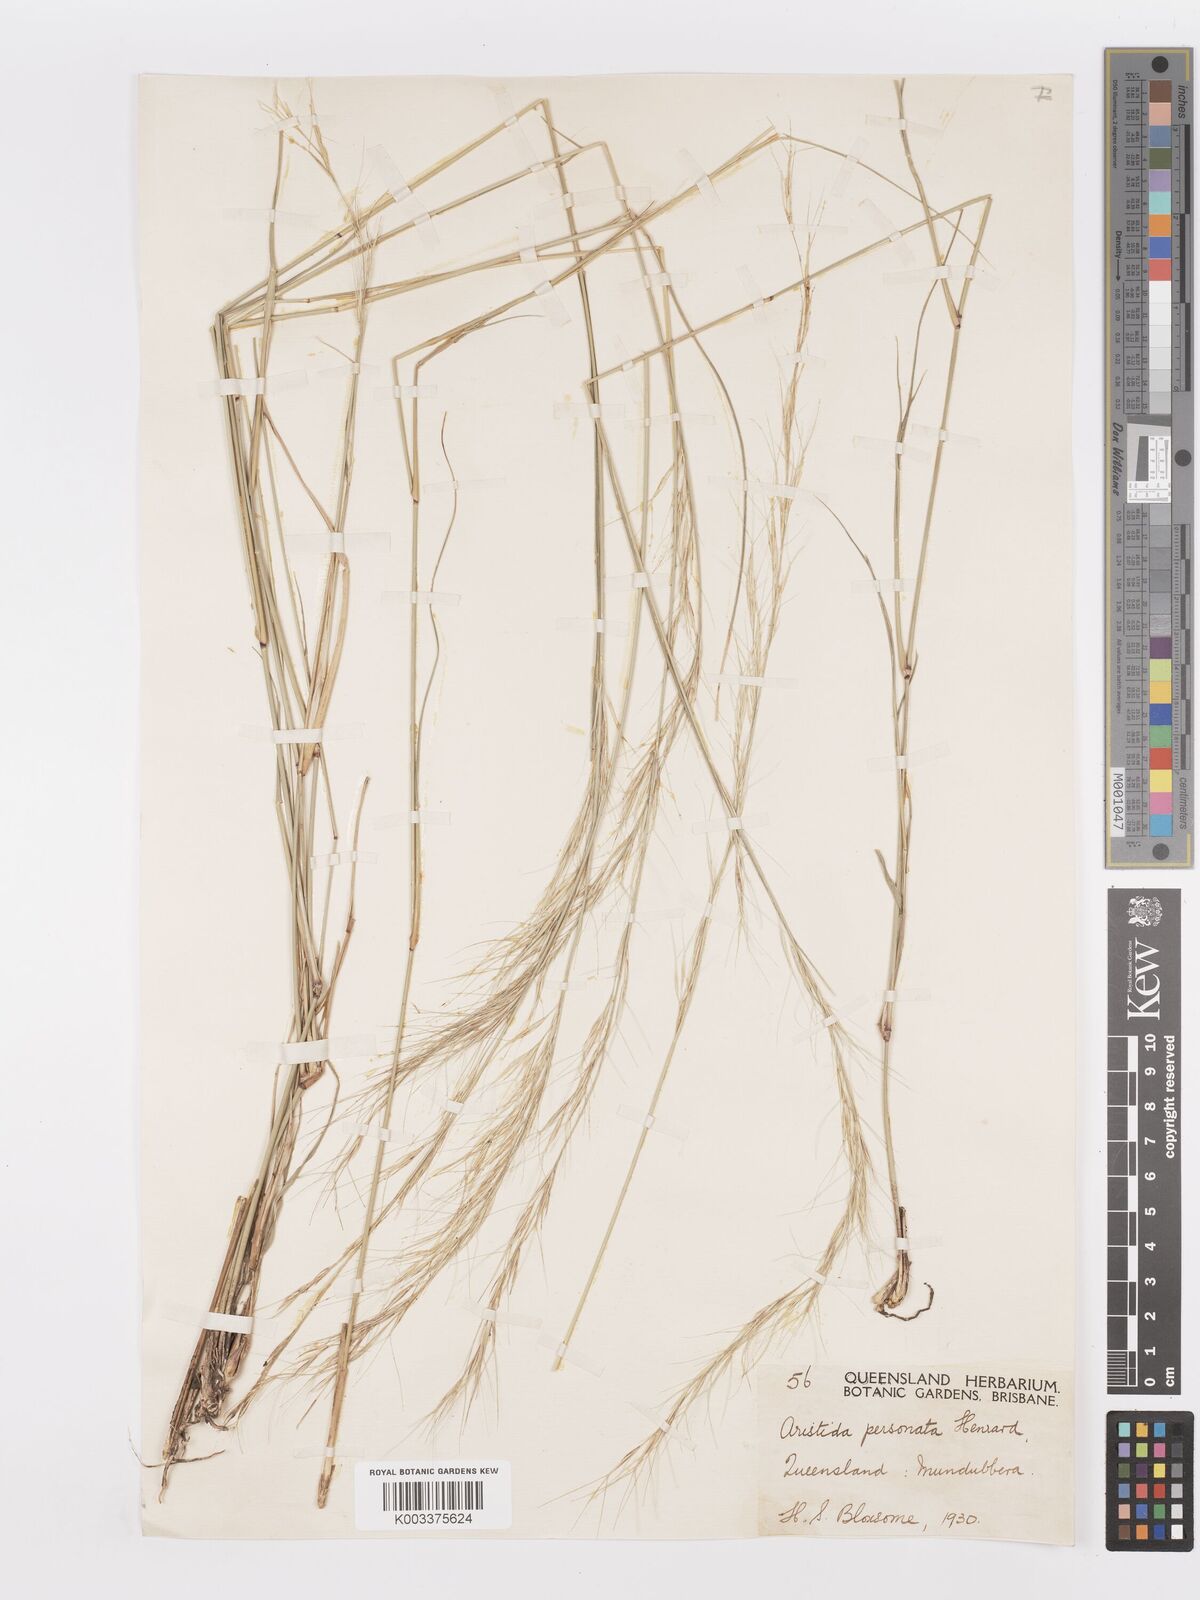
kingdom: Plantae
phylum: Tracheophyta
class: Liliopsida
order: Poales
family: Poaceae
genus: Aristida
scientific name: Aristida personata
